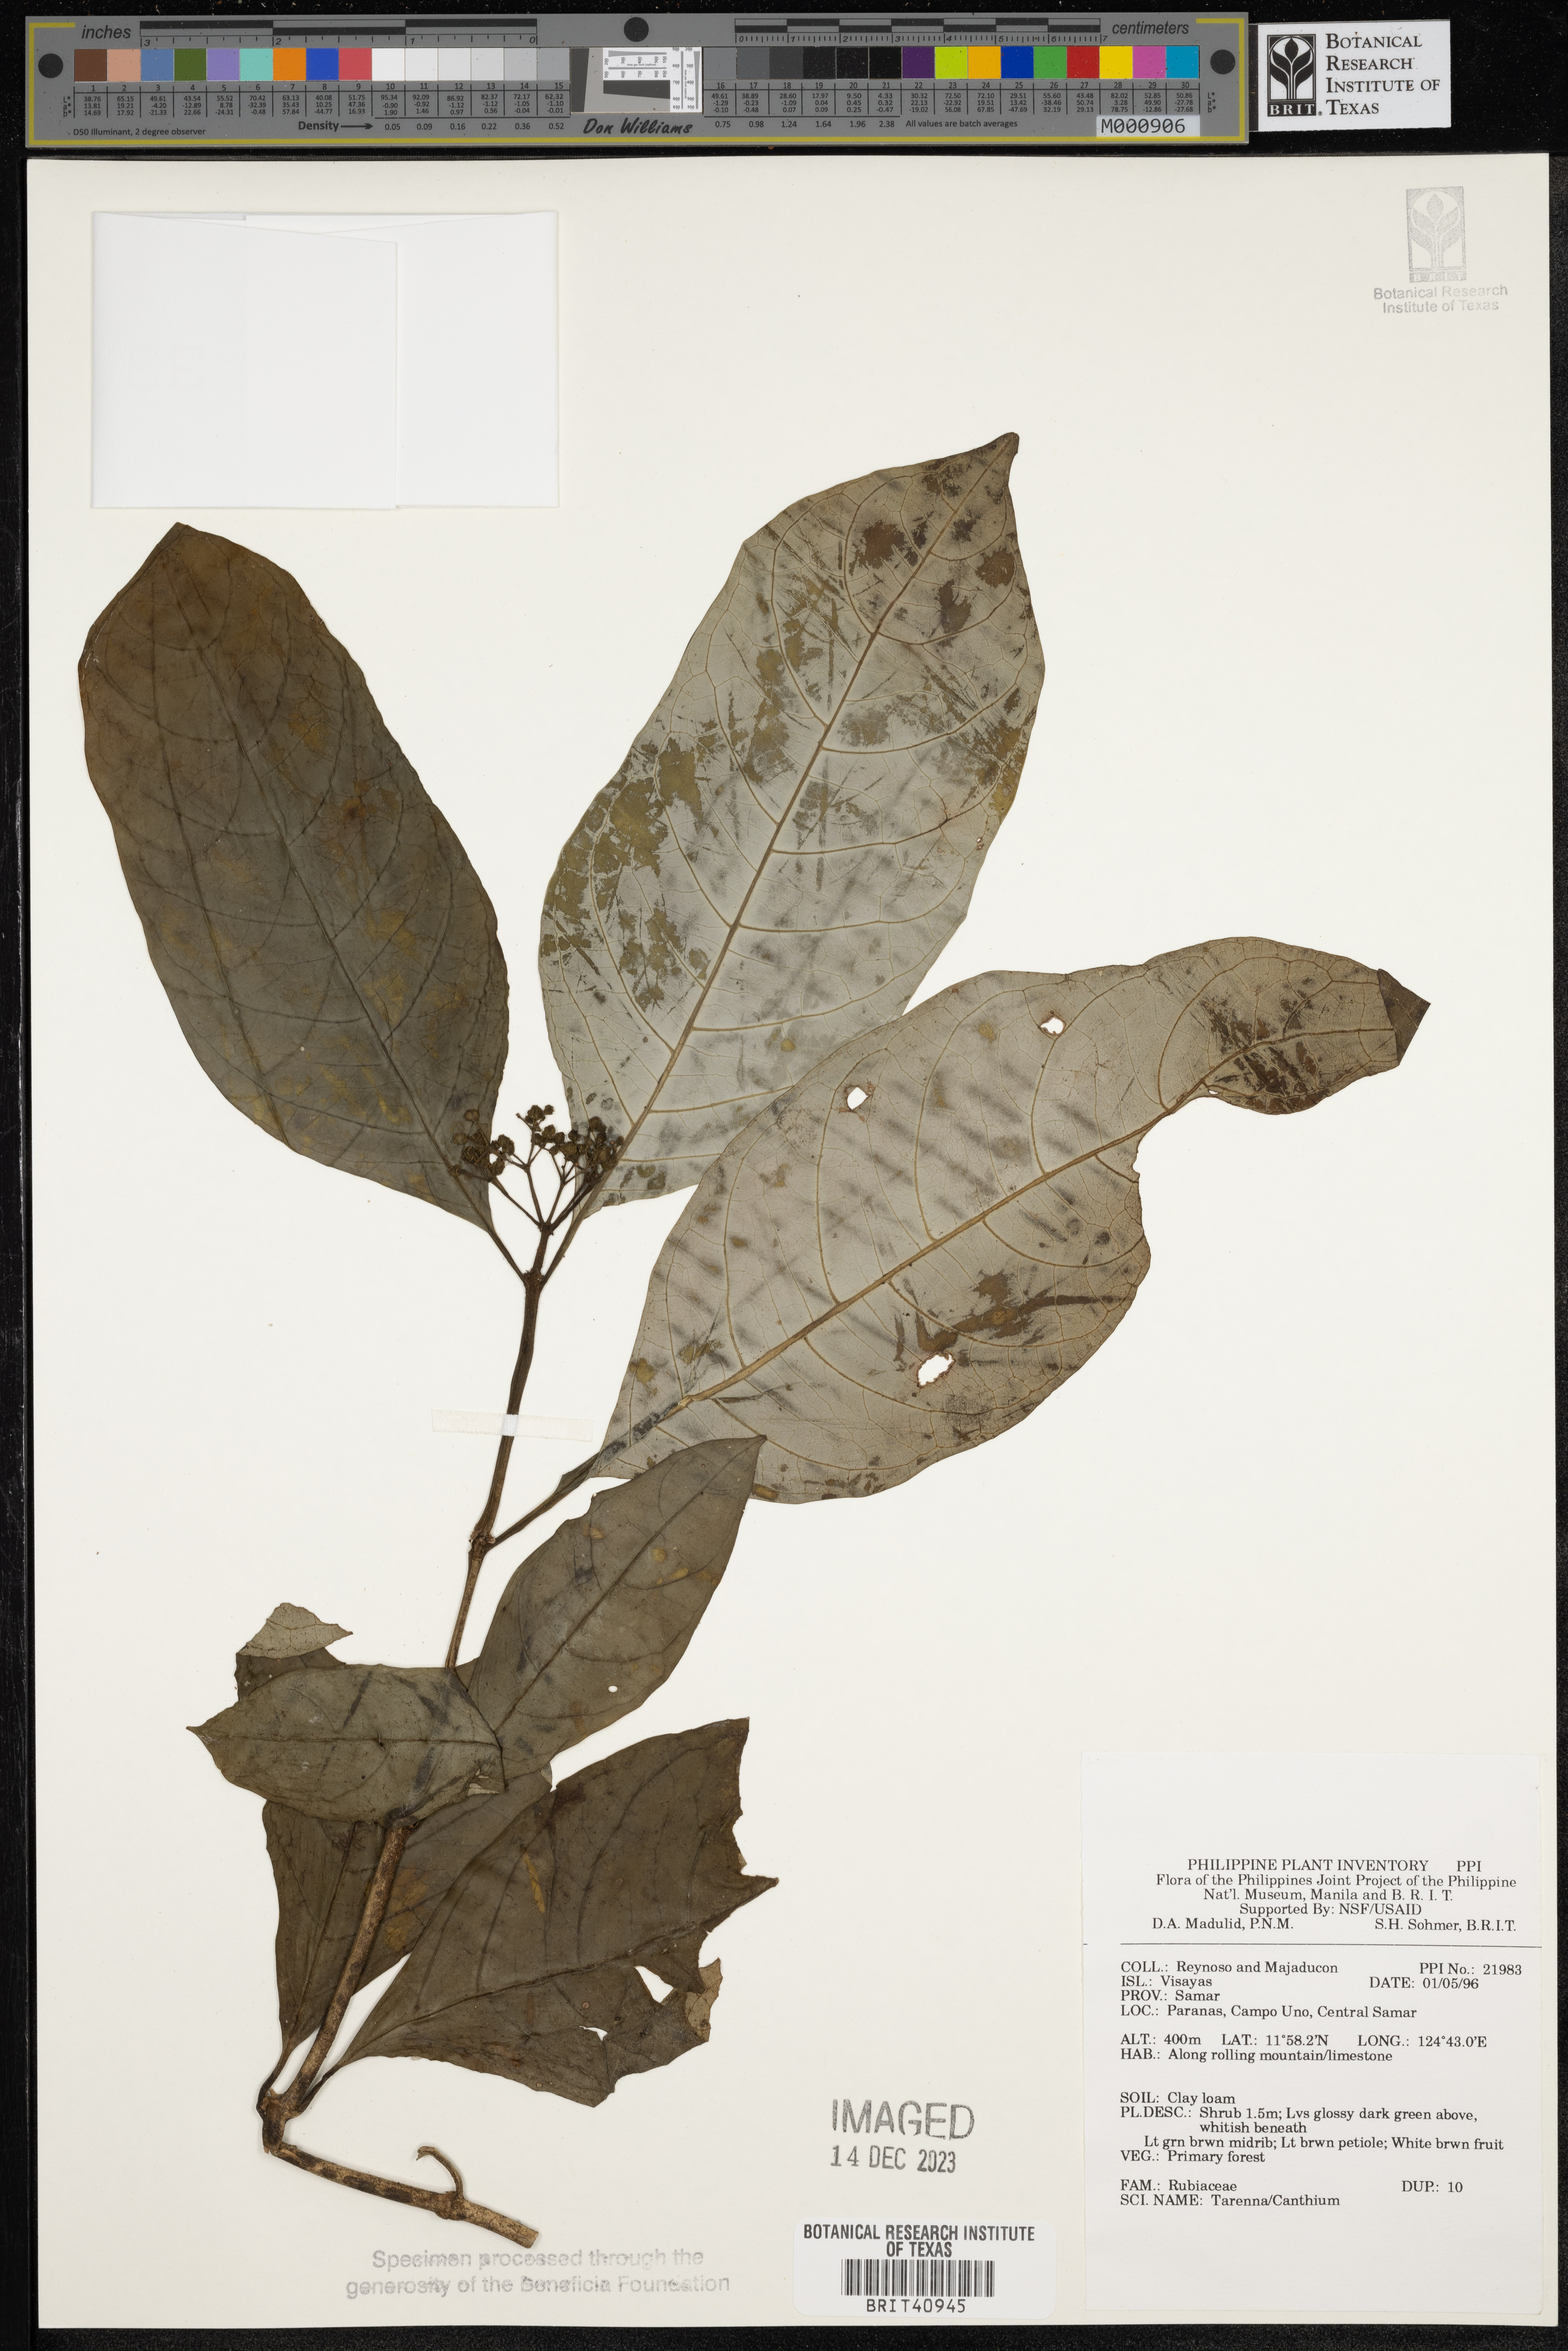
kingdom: Plantae
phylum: Tracheophyta
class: Magnoliopsida
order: Gentianales
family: Rubiaceae
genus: Tarenna
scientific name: Tarenna
